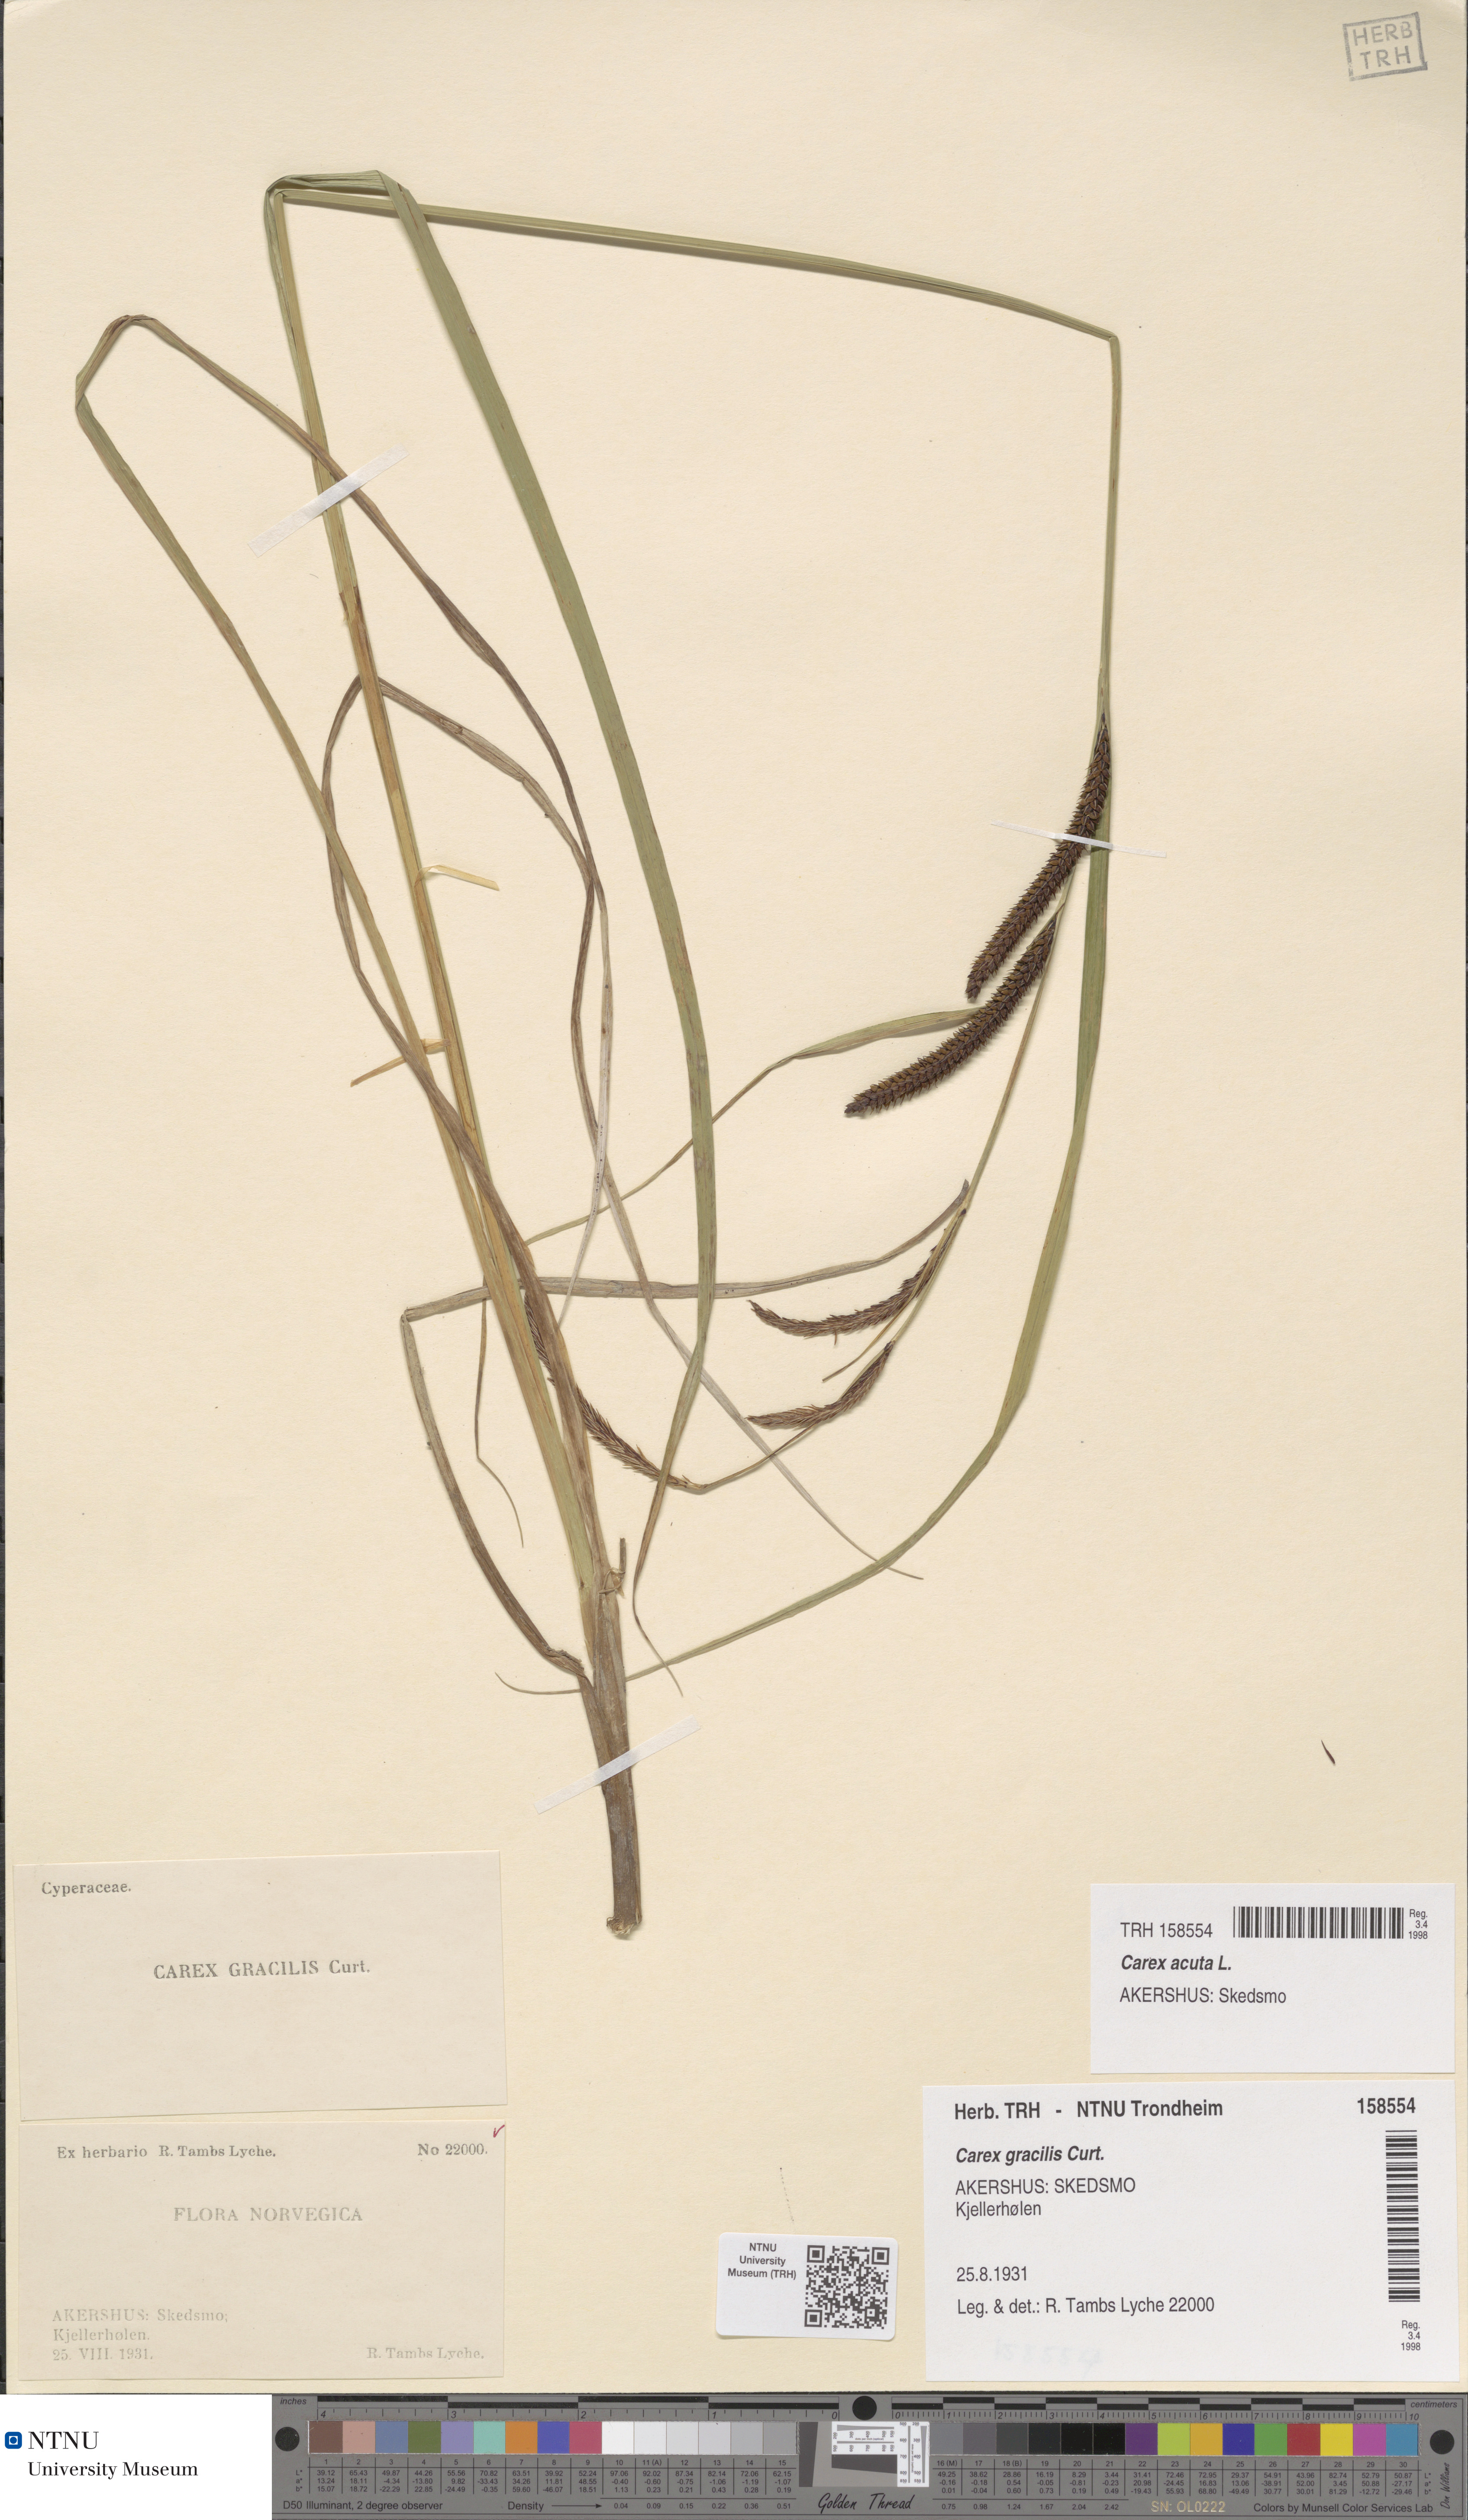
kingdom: Plantae
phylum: Tracheophyta
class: Liliopsida
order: Poales
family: Cyperaceae
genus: Carex
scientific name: Carex acuta
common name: Slender tufted-sedge
